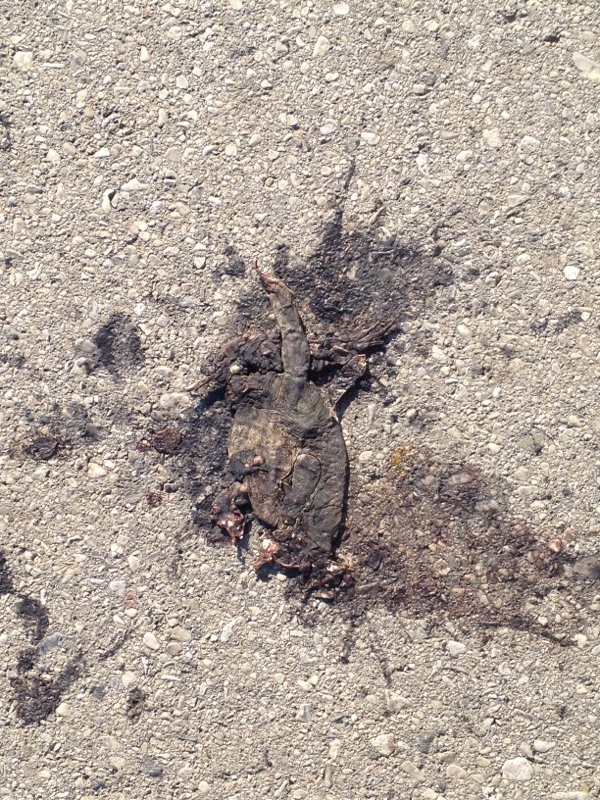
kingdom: Animalia
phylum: Chordata
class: Amphibia
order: Anura
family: Bufonidae
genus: Bufo
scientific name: Bufo bufo
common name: Common toad
